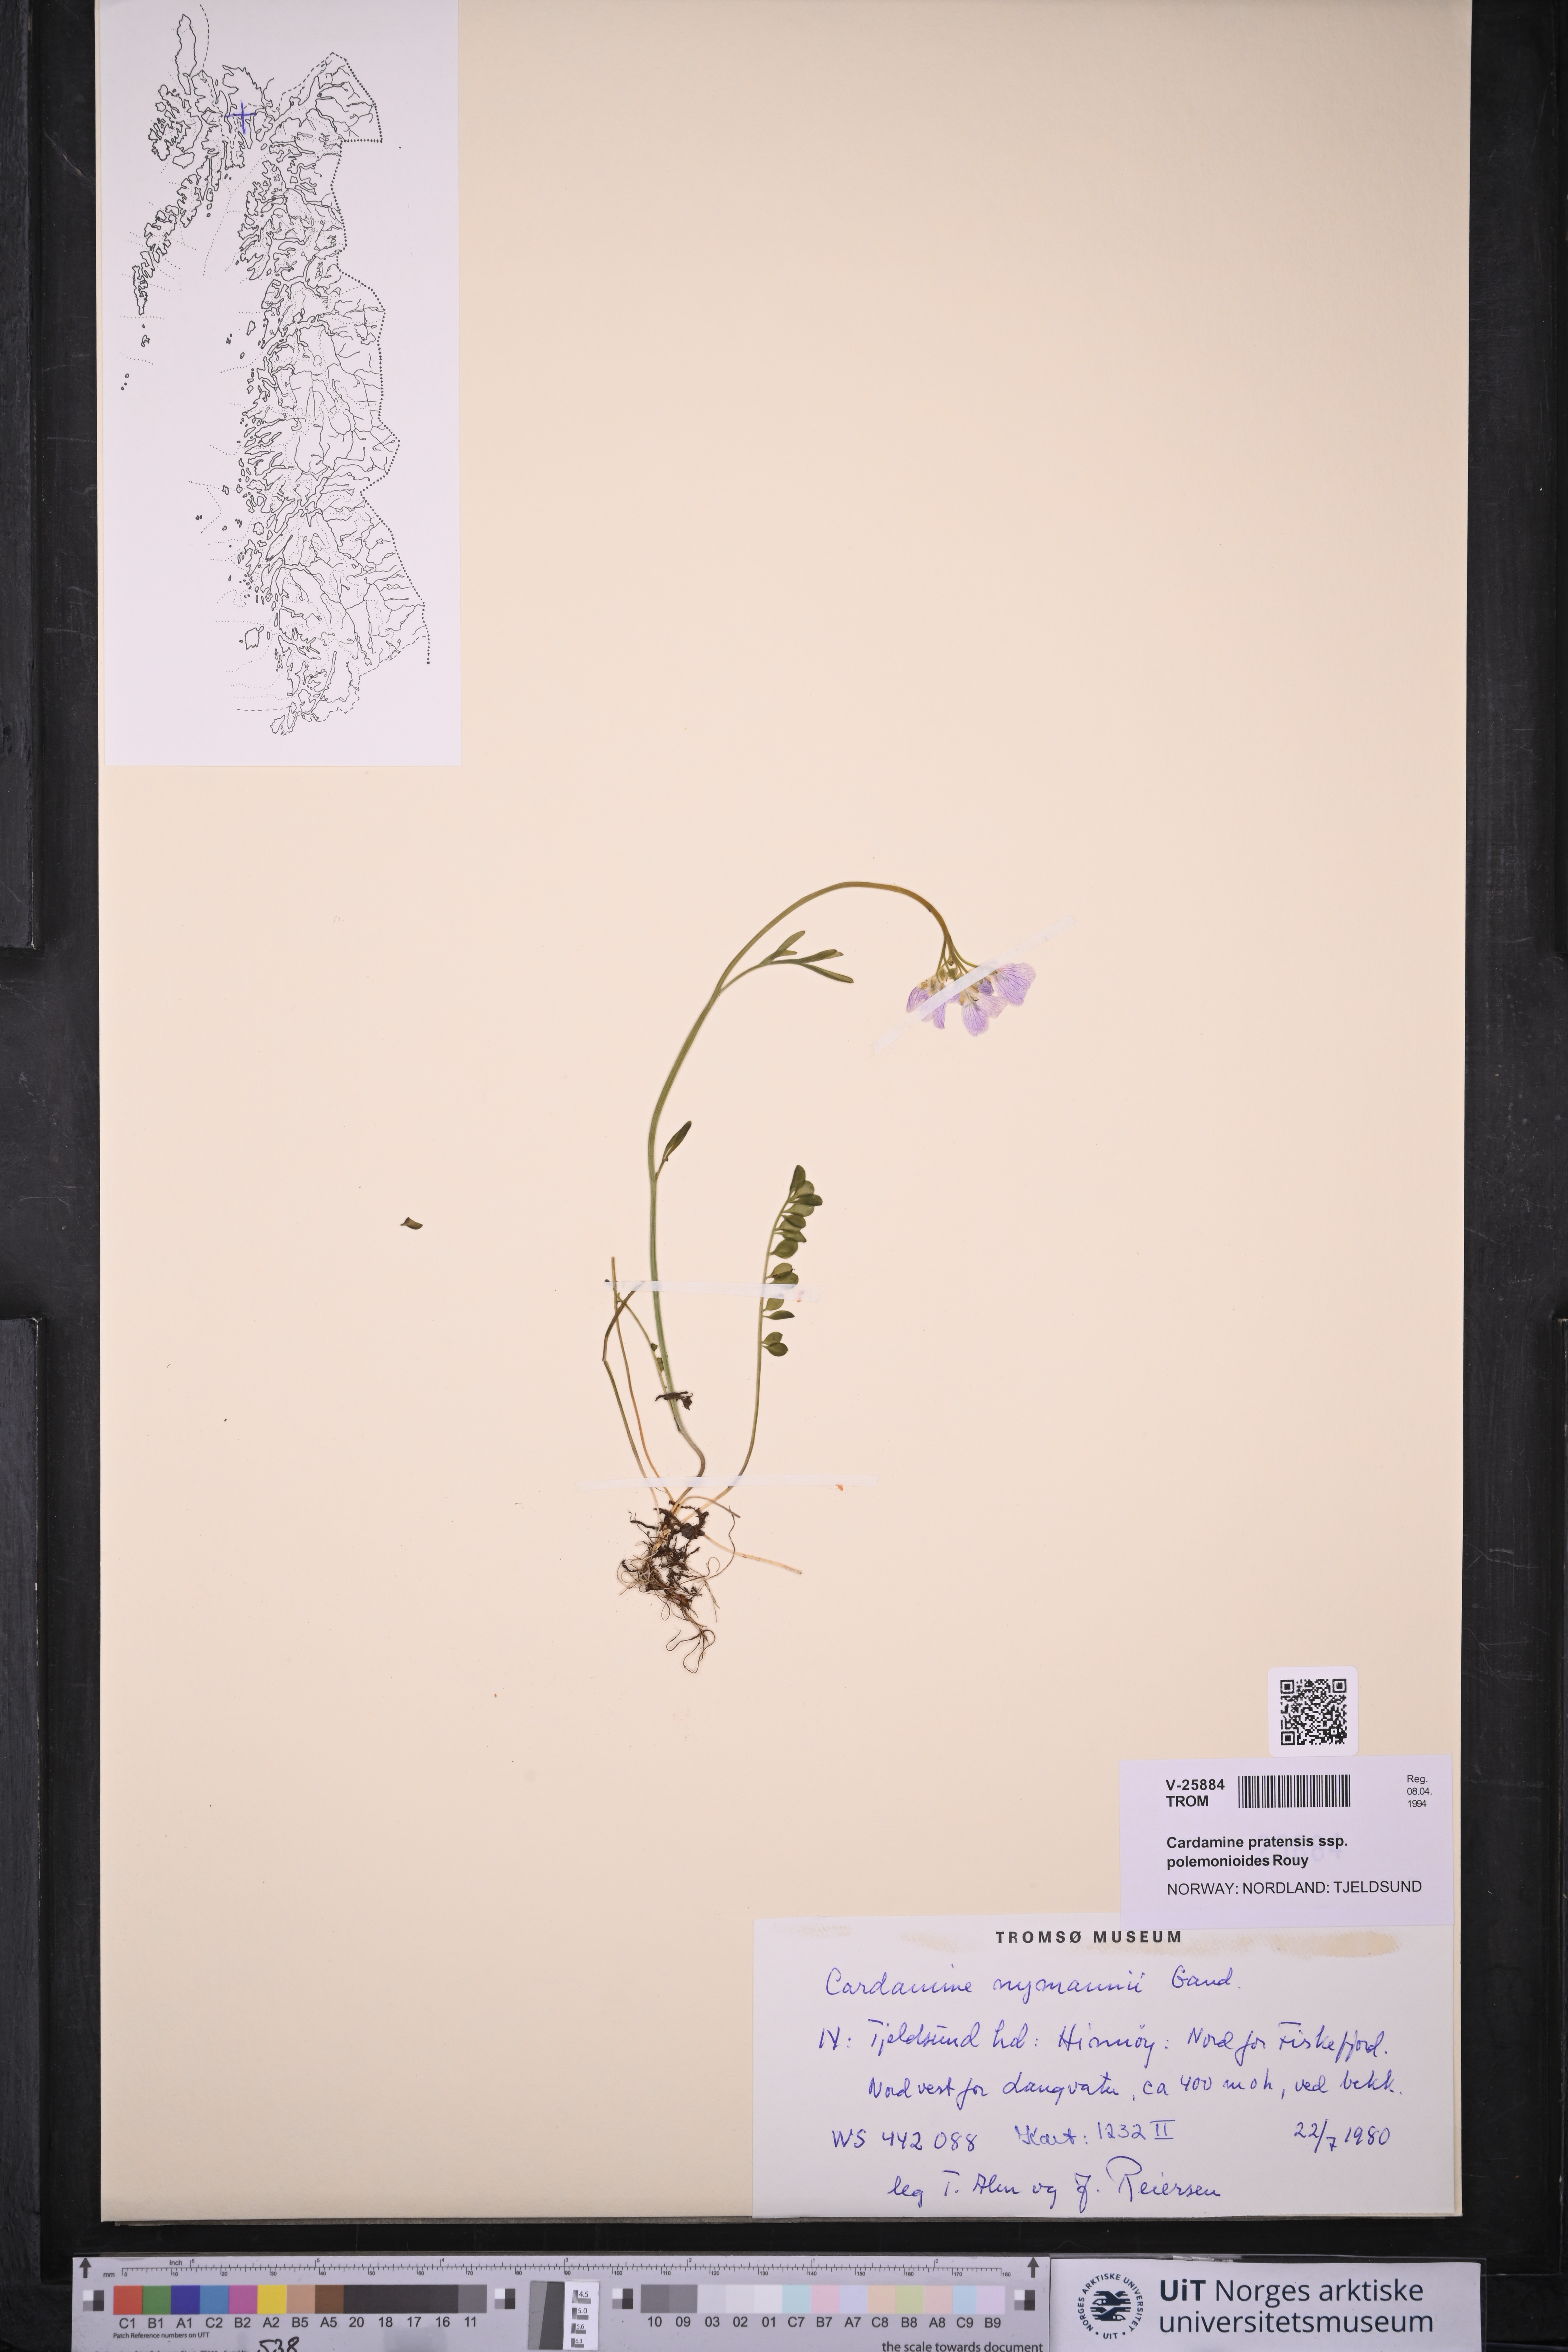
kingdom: Plantae
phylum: Tracheophyta
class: Magnoliopsida
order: Brassicales
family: Brassicaceae
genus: Cardamine
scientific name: Cardamine nymanii
